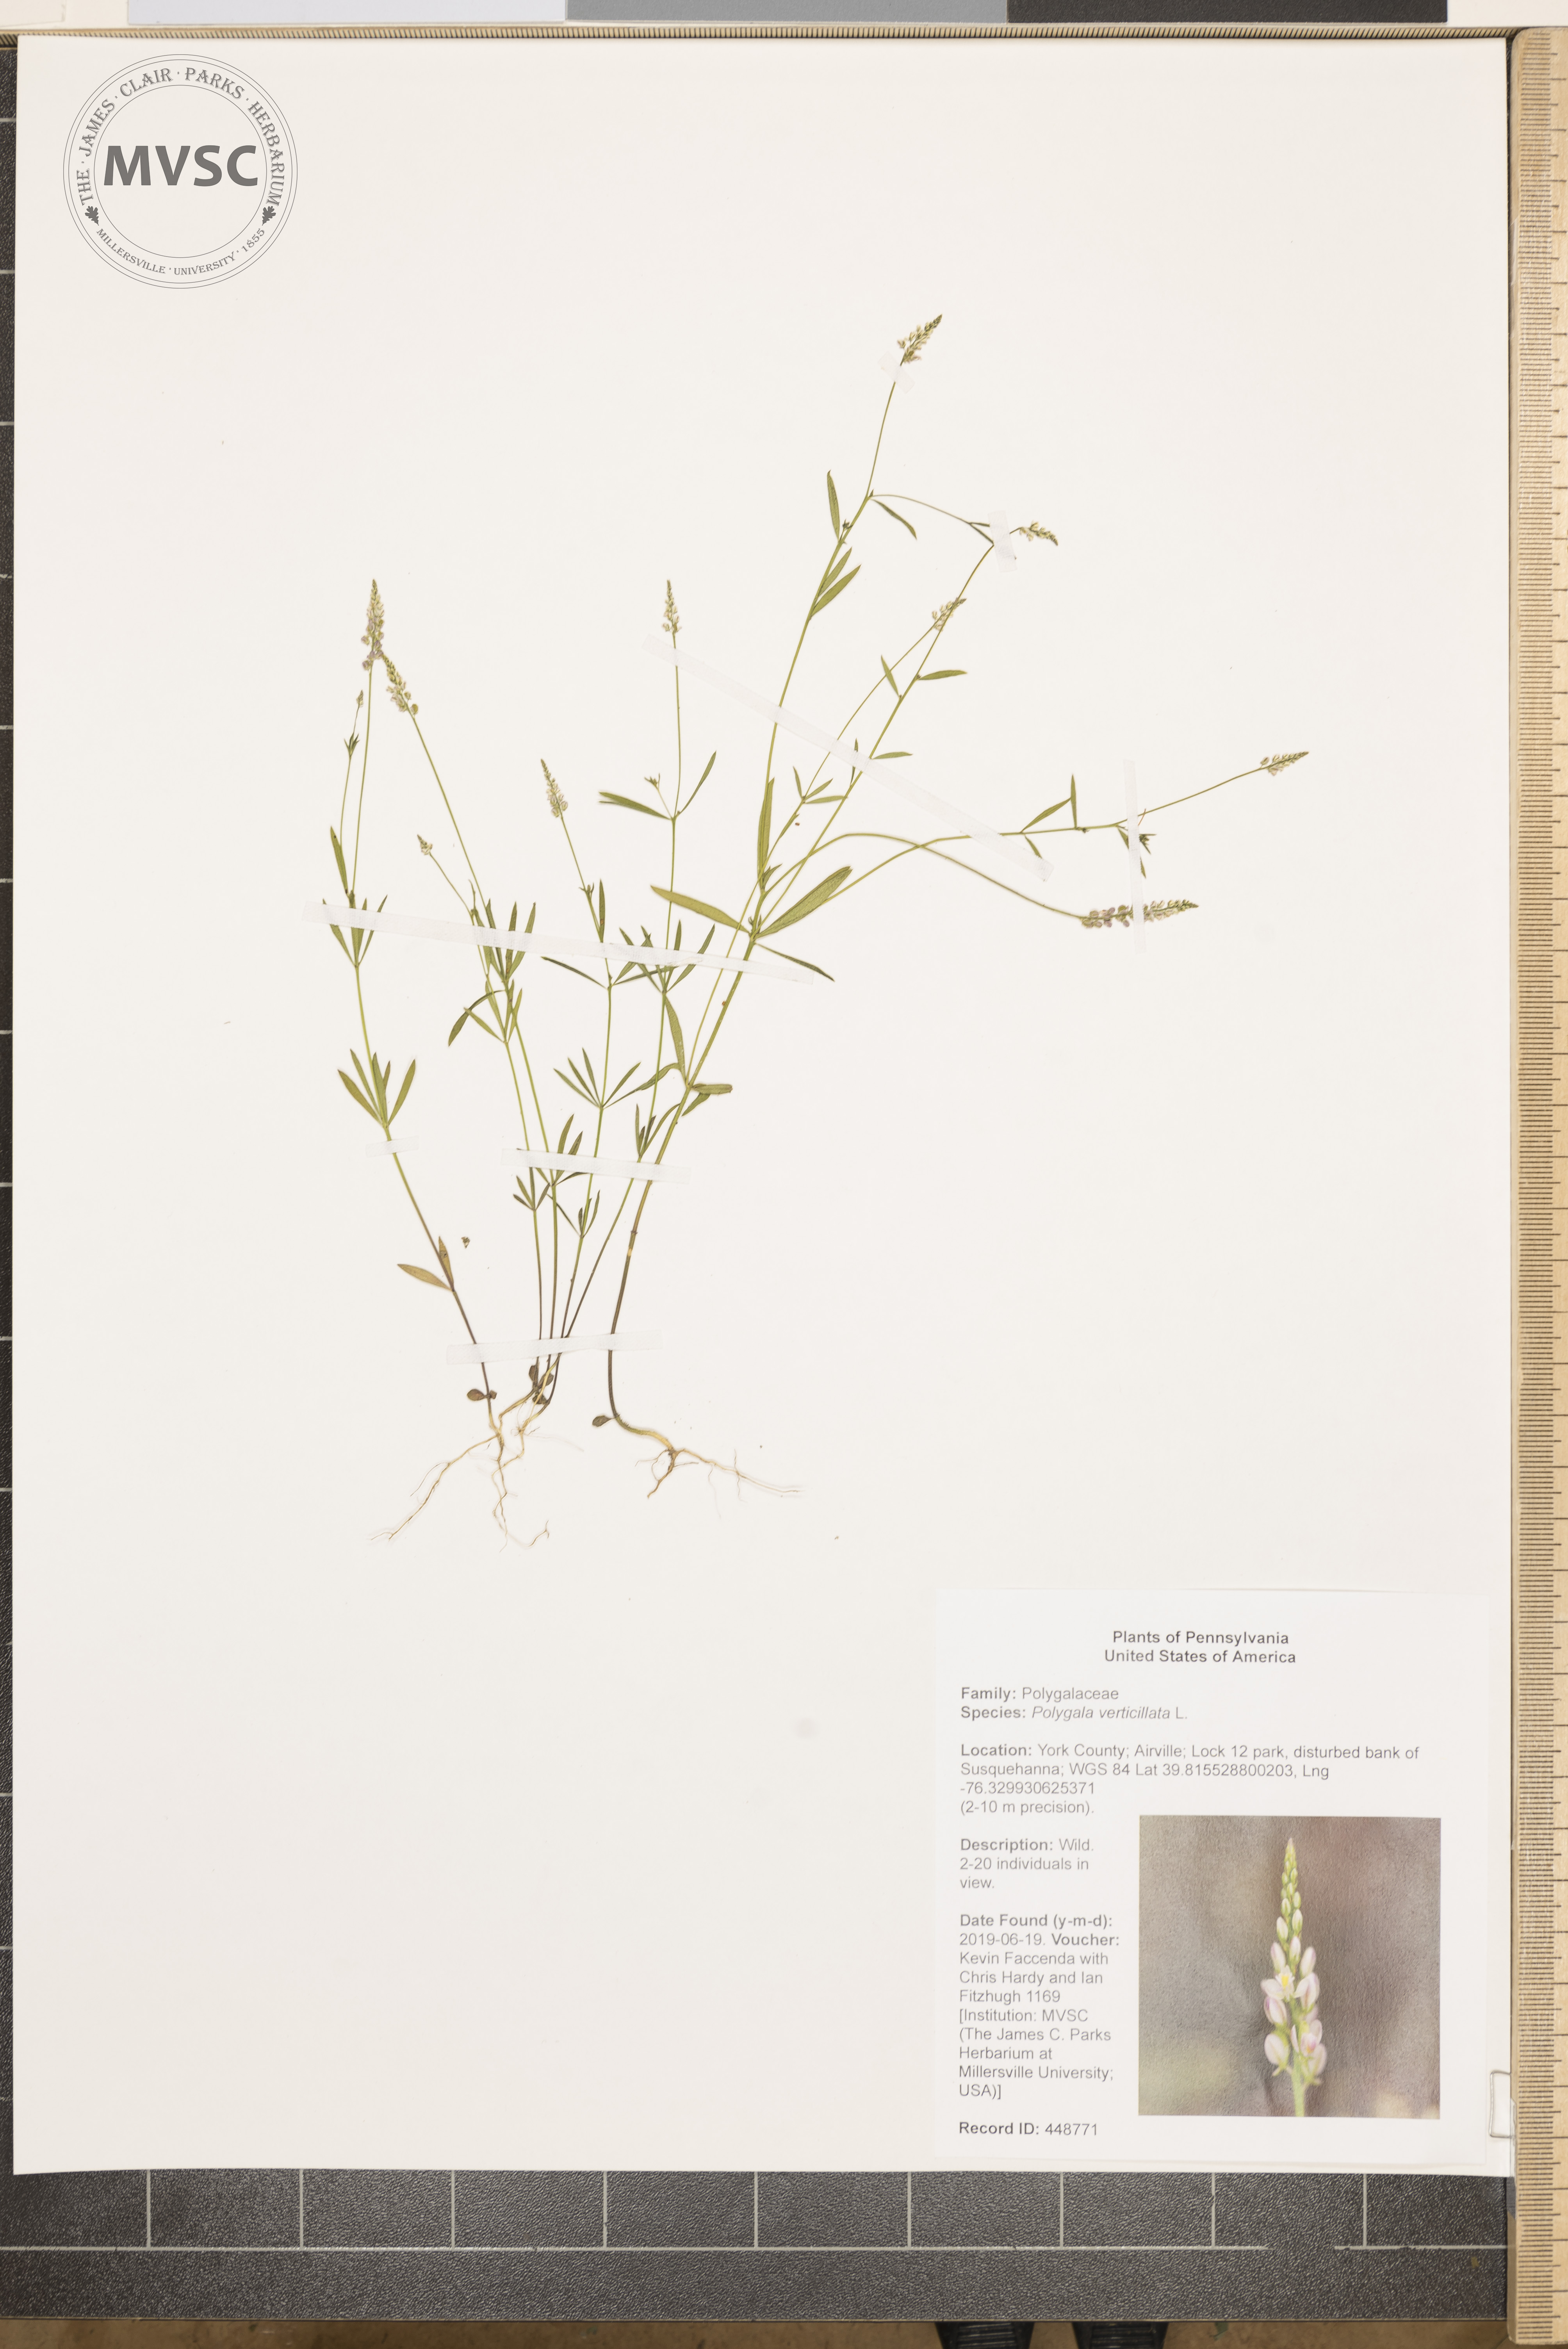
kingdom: Plantae
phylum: Tracheophyta
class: Magnoliopsida
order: Fabales
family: Polygalaceae
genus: Polygala
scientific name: Polygala verticillata
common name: Whorl milkwort
